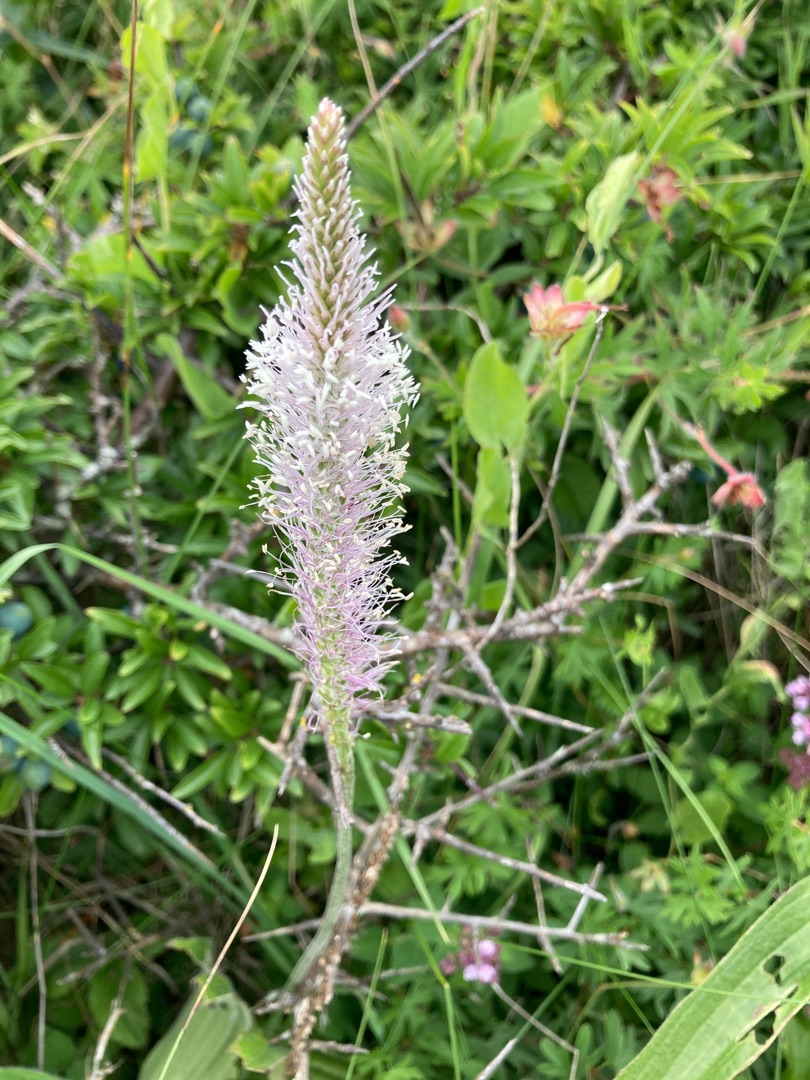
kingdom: Plantae
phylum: Tracheophyta
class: Magnoliopsida
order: Lamiales
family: Plantaginaceae
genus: Plantago
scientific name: Plantago media
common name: Dunet vejbred
